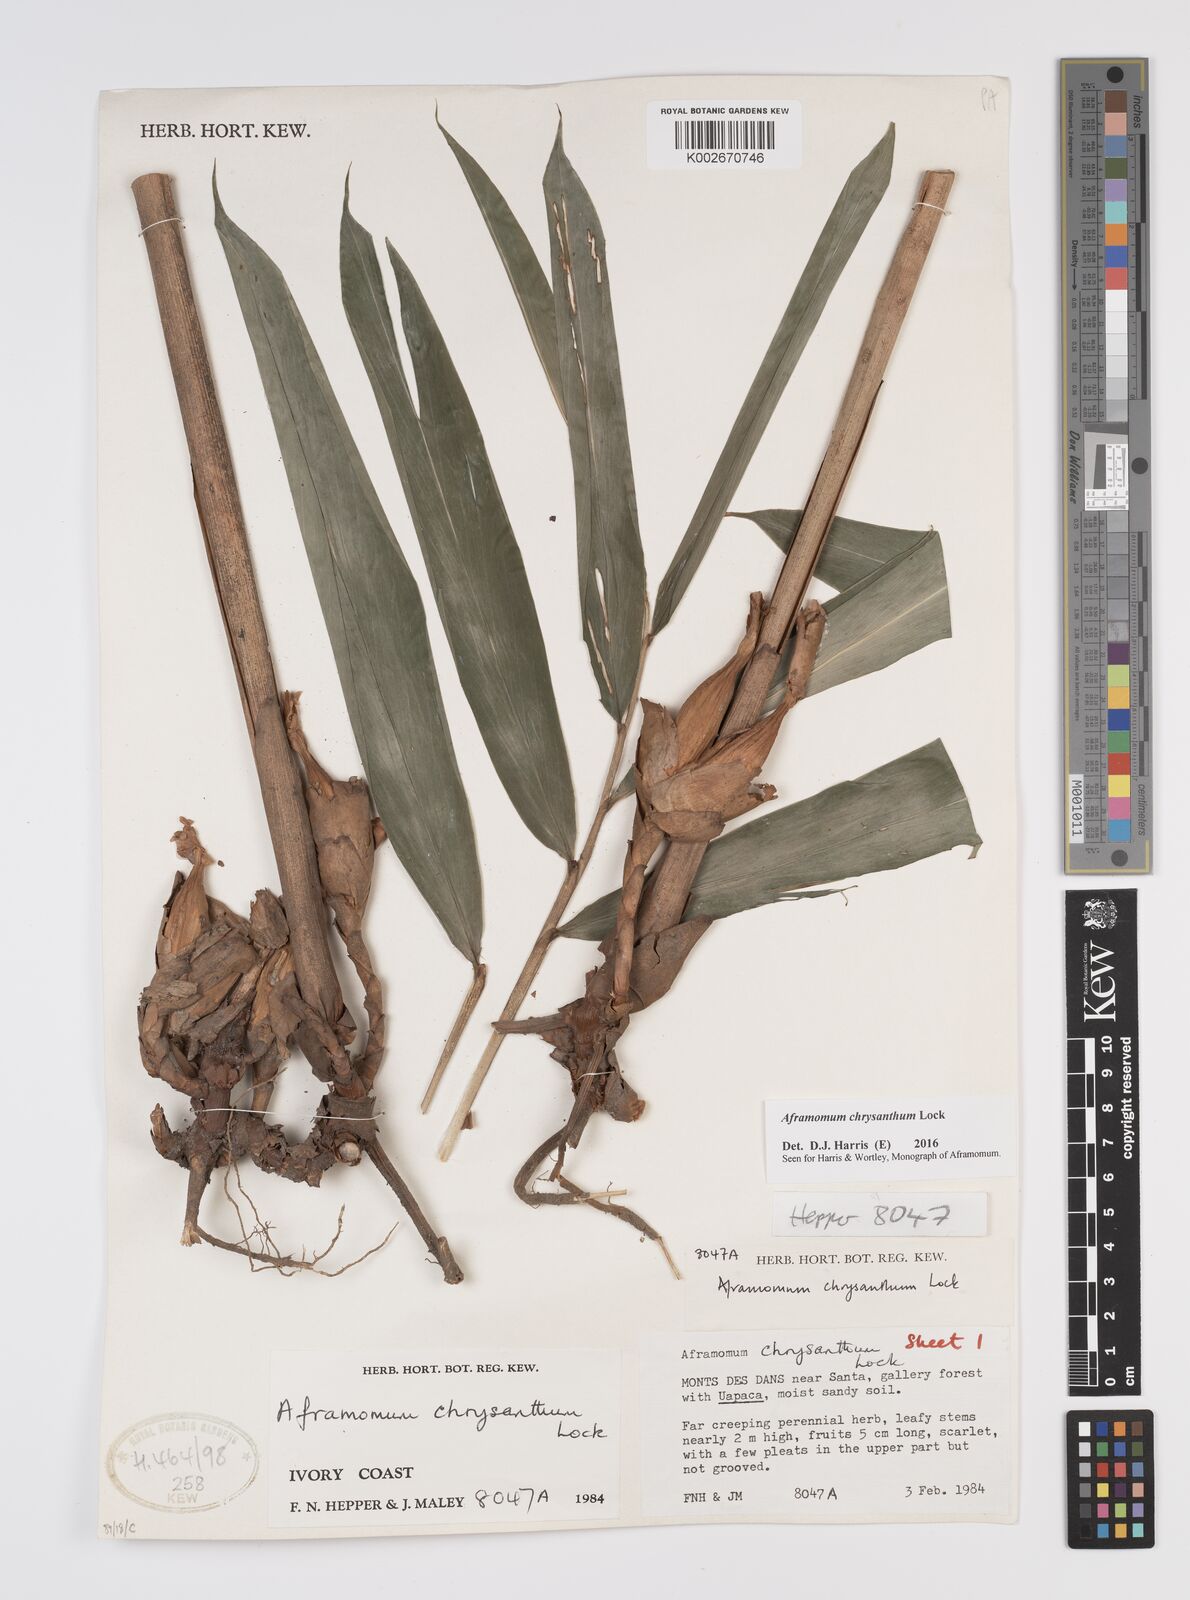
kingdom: Plantae
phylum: Tracheophyta
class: Liliopsida
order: Zingiberales
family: Zingiberaceae
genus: Aframomum
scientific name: Aframomum chrysanthum
